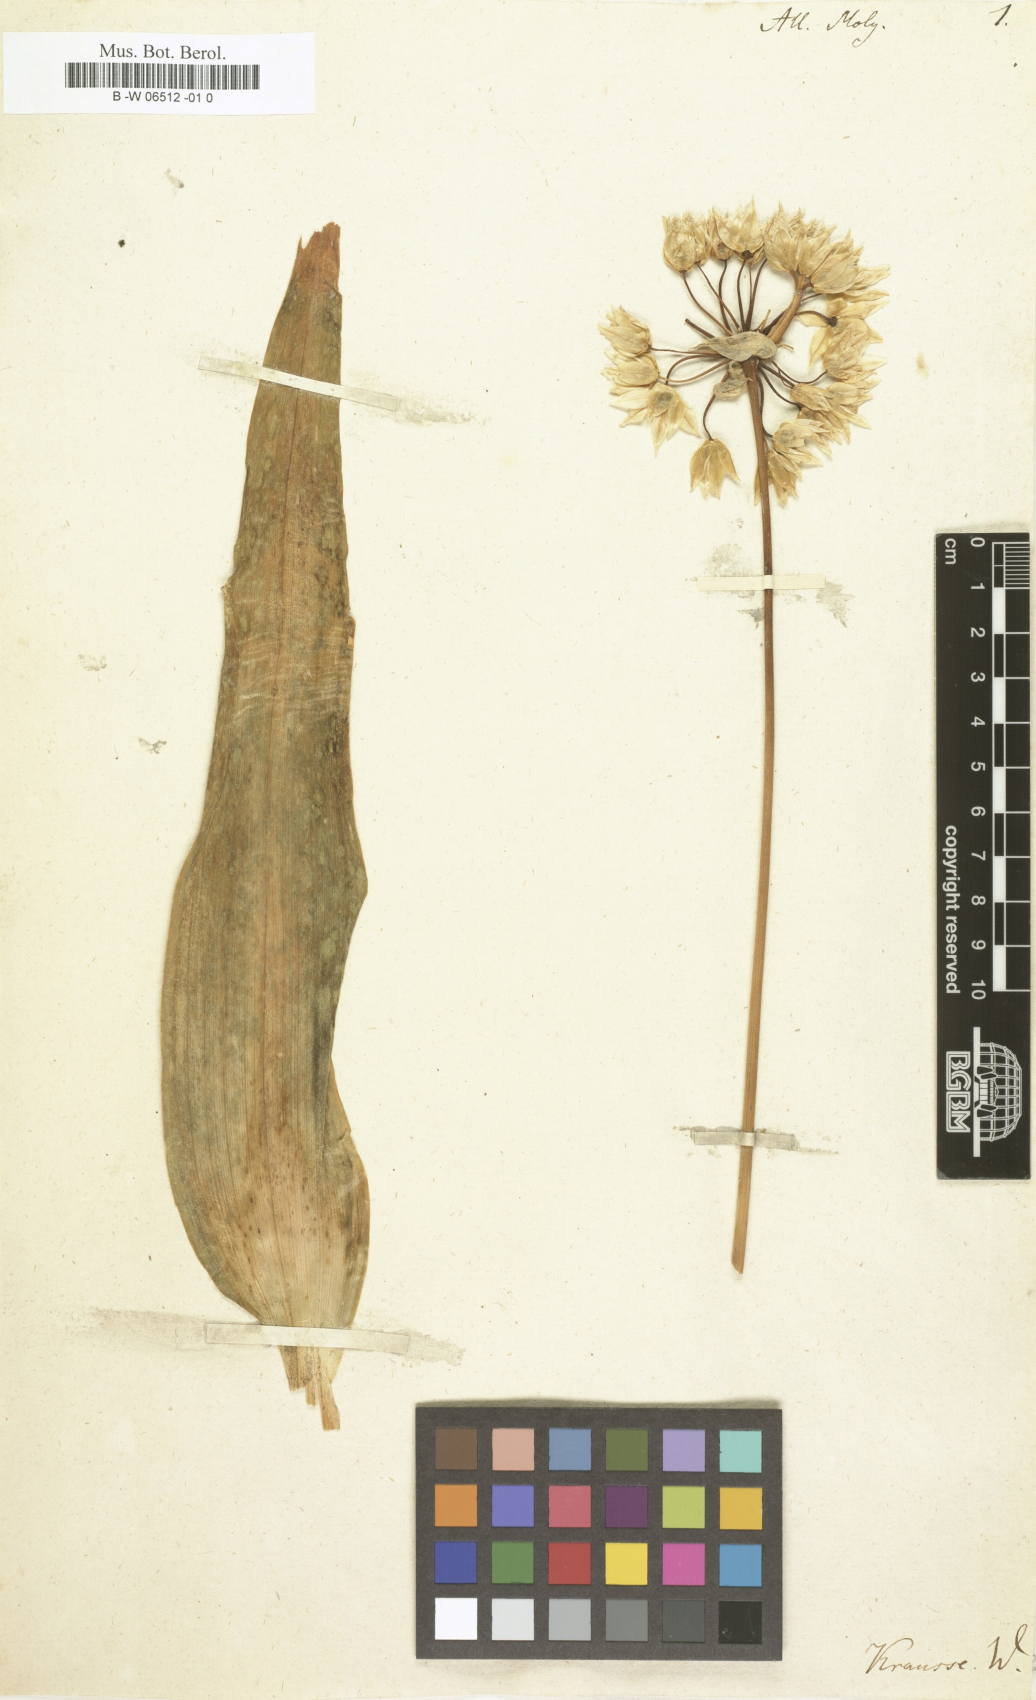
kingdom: Plantae
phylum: Tracheophyta
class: Liliopsida
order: Asparagales
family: Amaryllidaceae
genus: Allium
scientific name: Allium moly
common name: Yellow garlic
